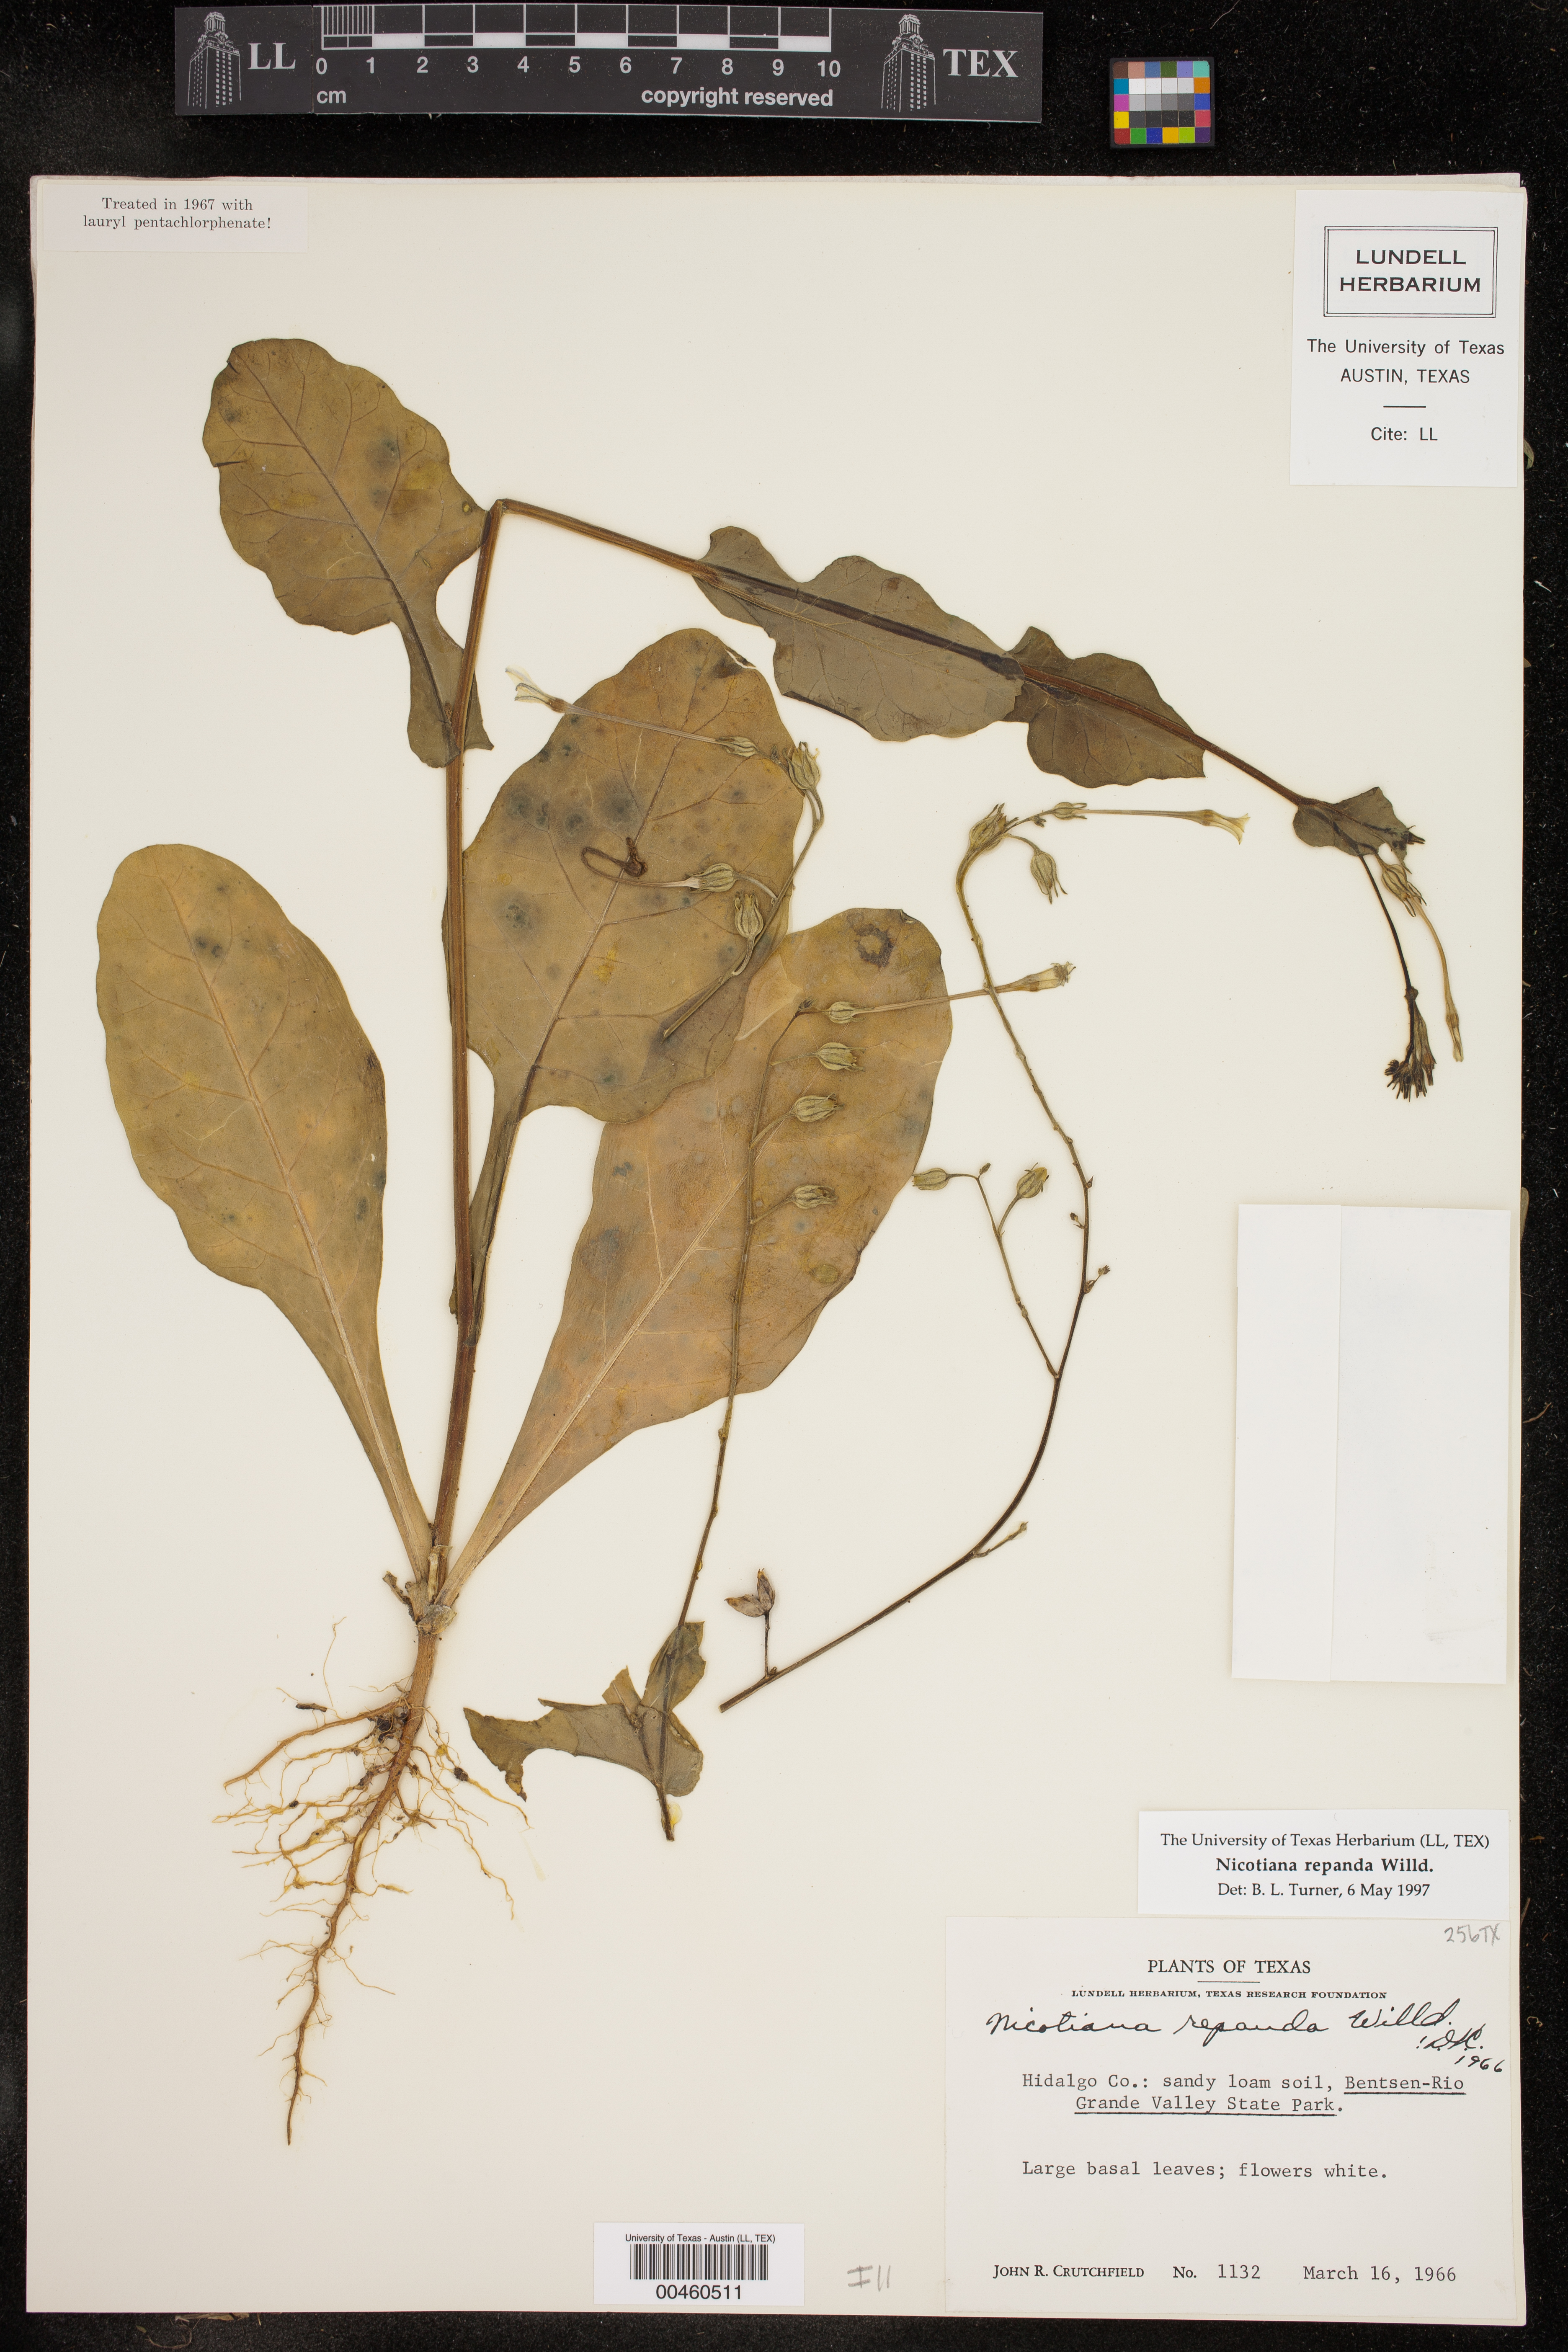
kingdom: Plantae
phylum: Tracheophyta
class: Magnoliopsida
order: Solanales
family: Solanaceae
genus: Nicotiana
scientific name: Nicotiana repanda
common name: Fiddle-leaf tobacco
